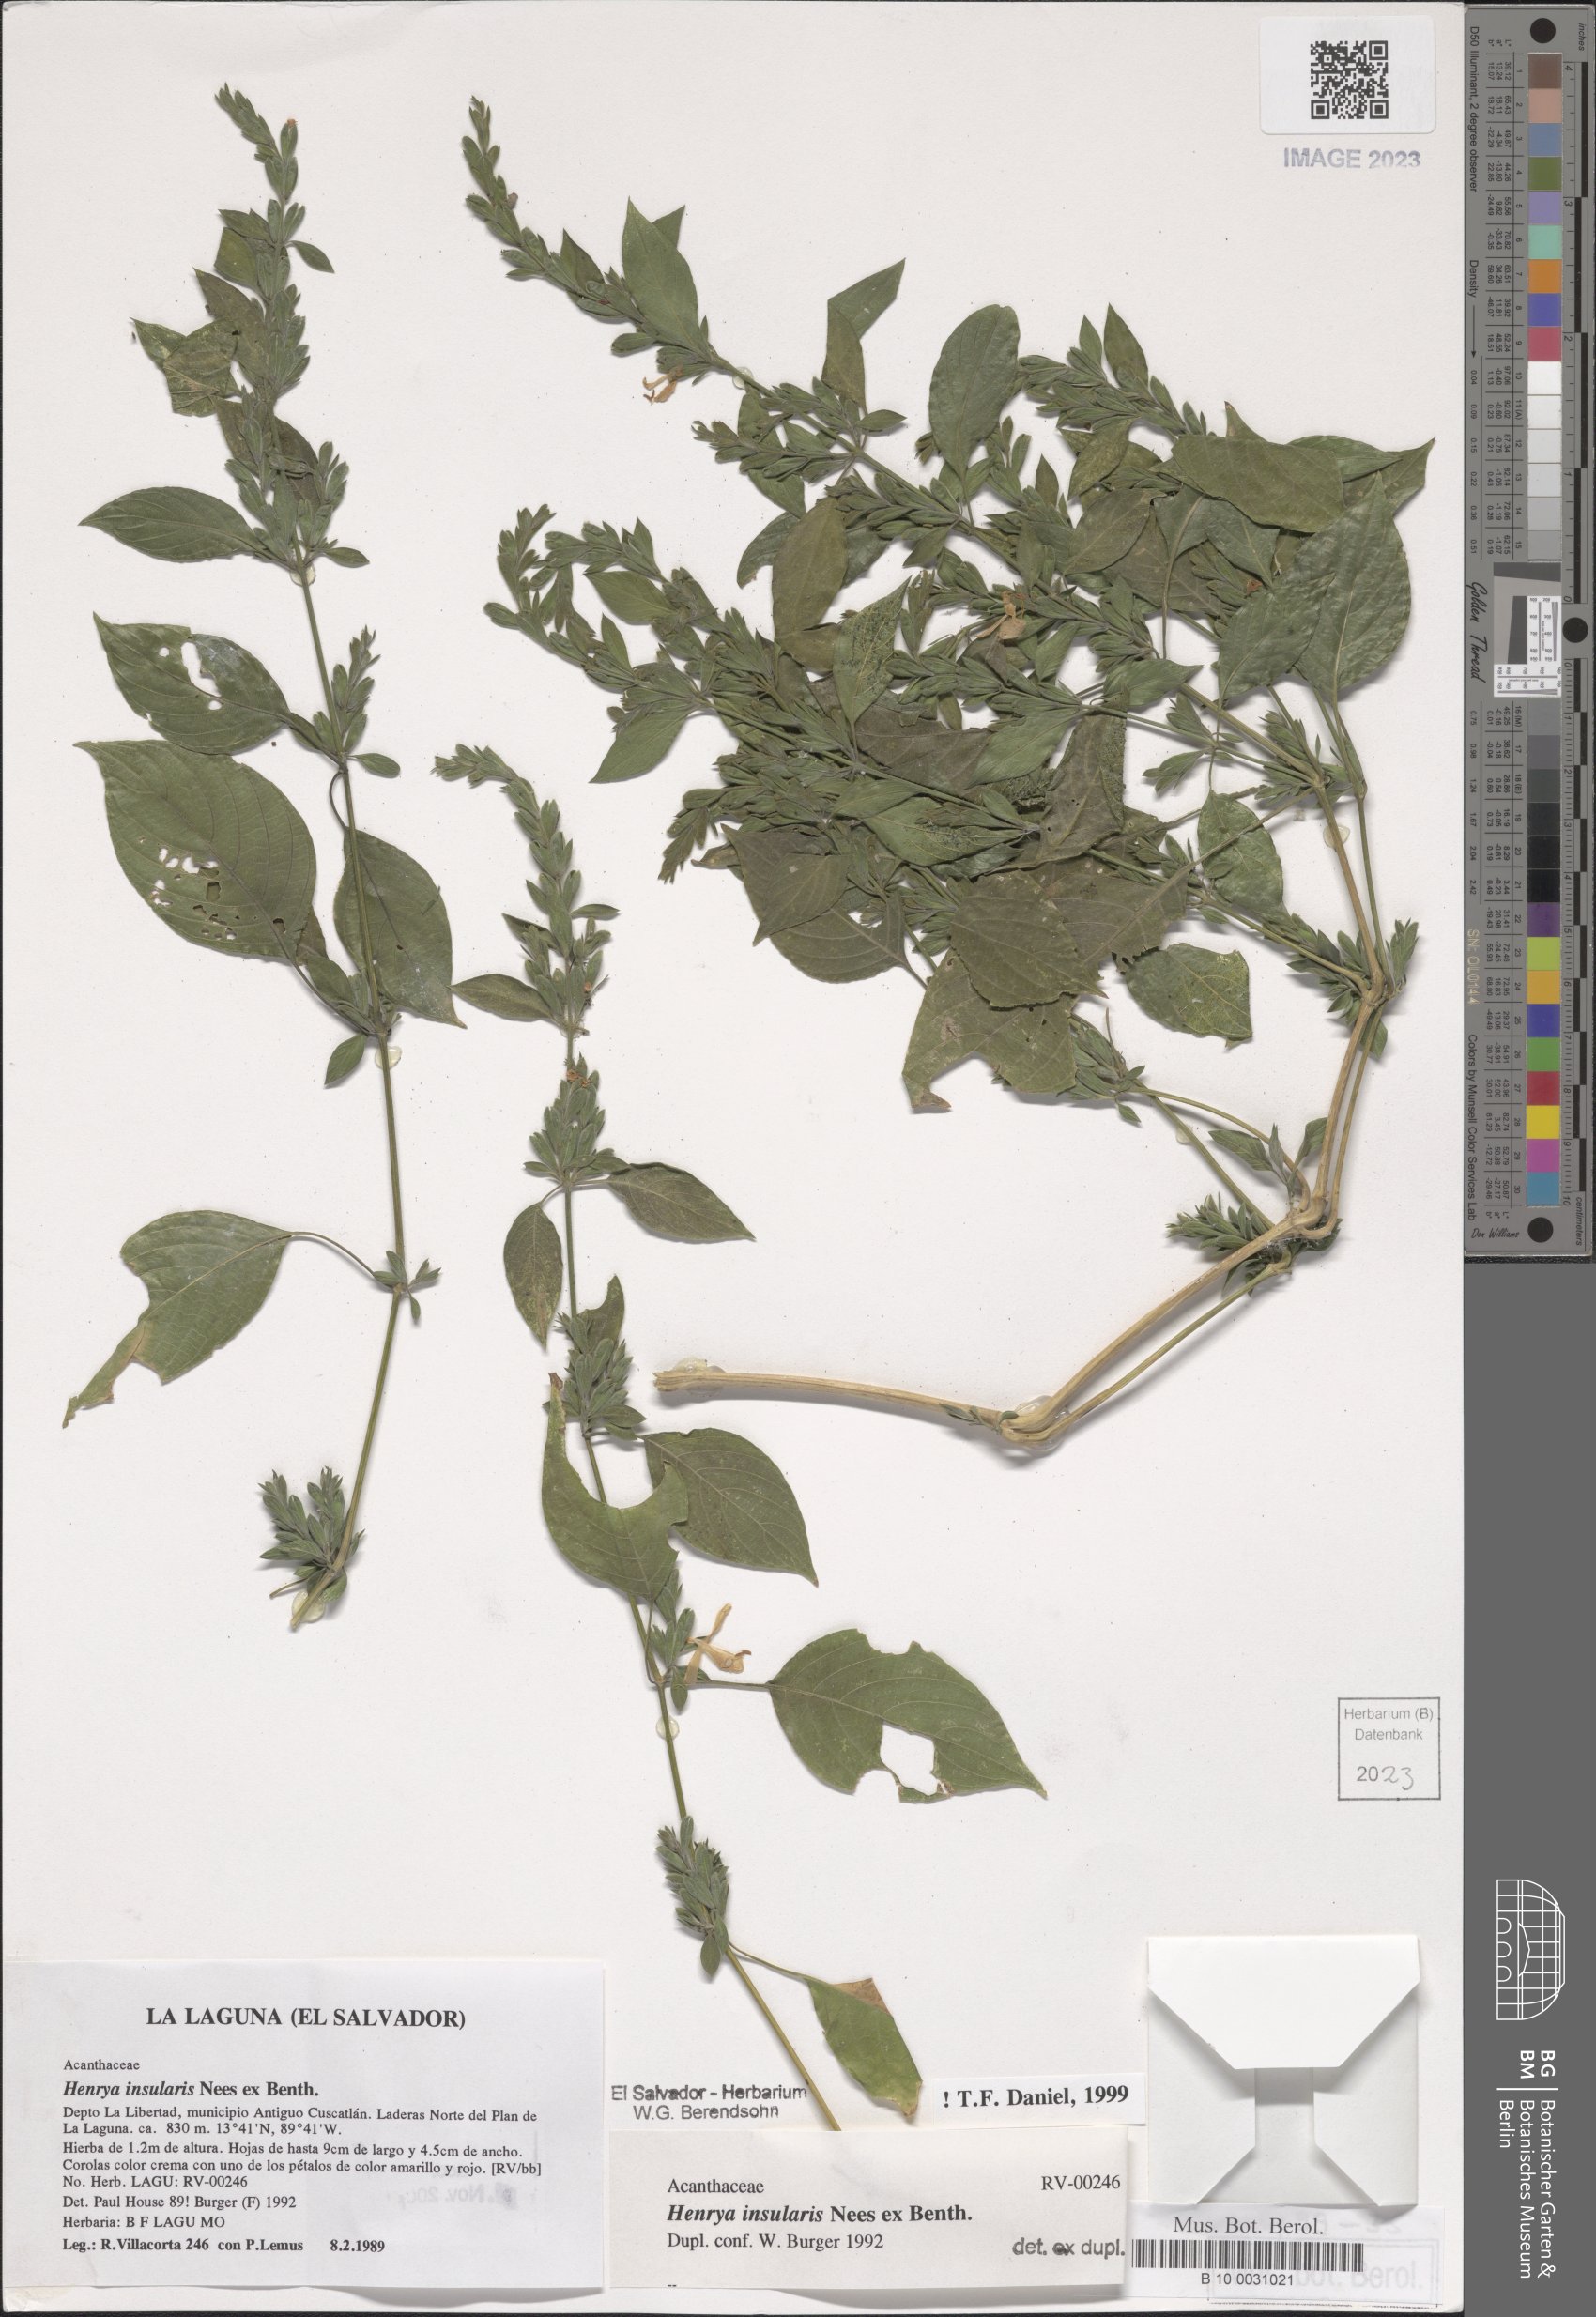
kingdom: Plantae
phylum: Tracheophyta
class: Magnoliopsida
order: Lamiales
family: Acanthaceae
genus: Henrya
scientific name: Henrya insularis
